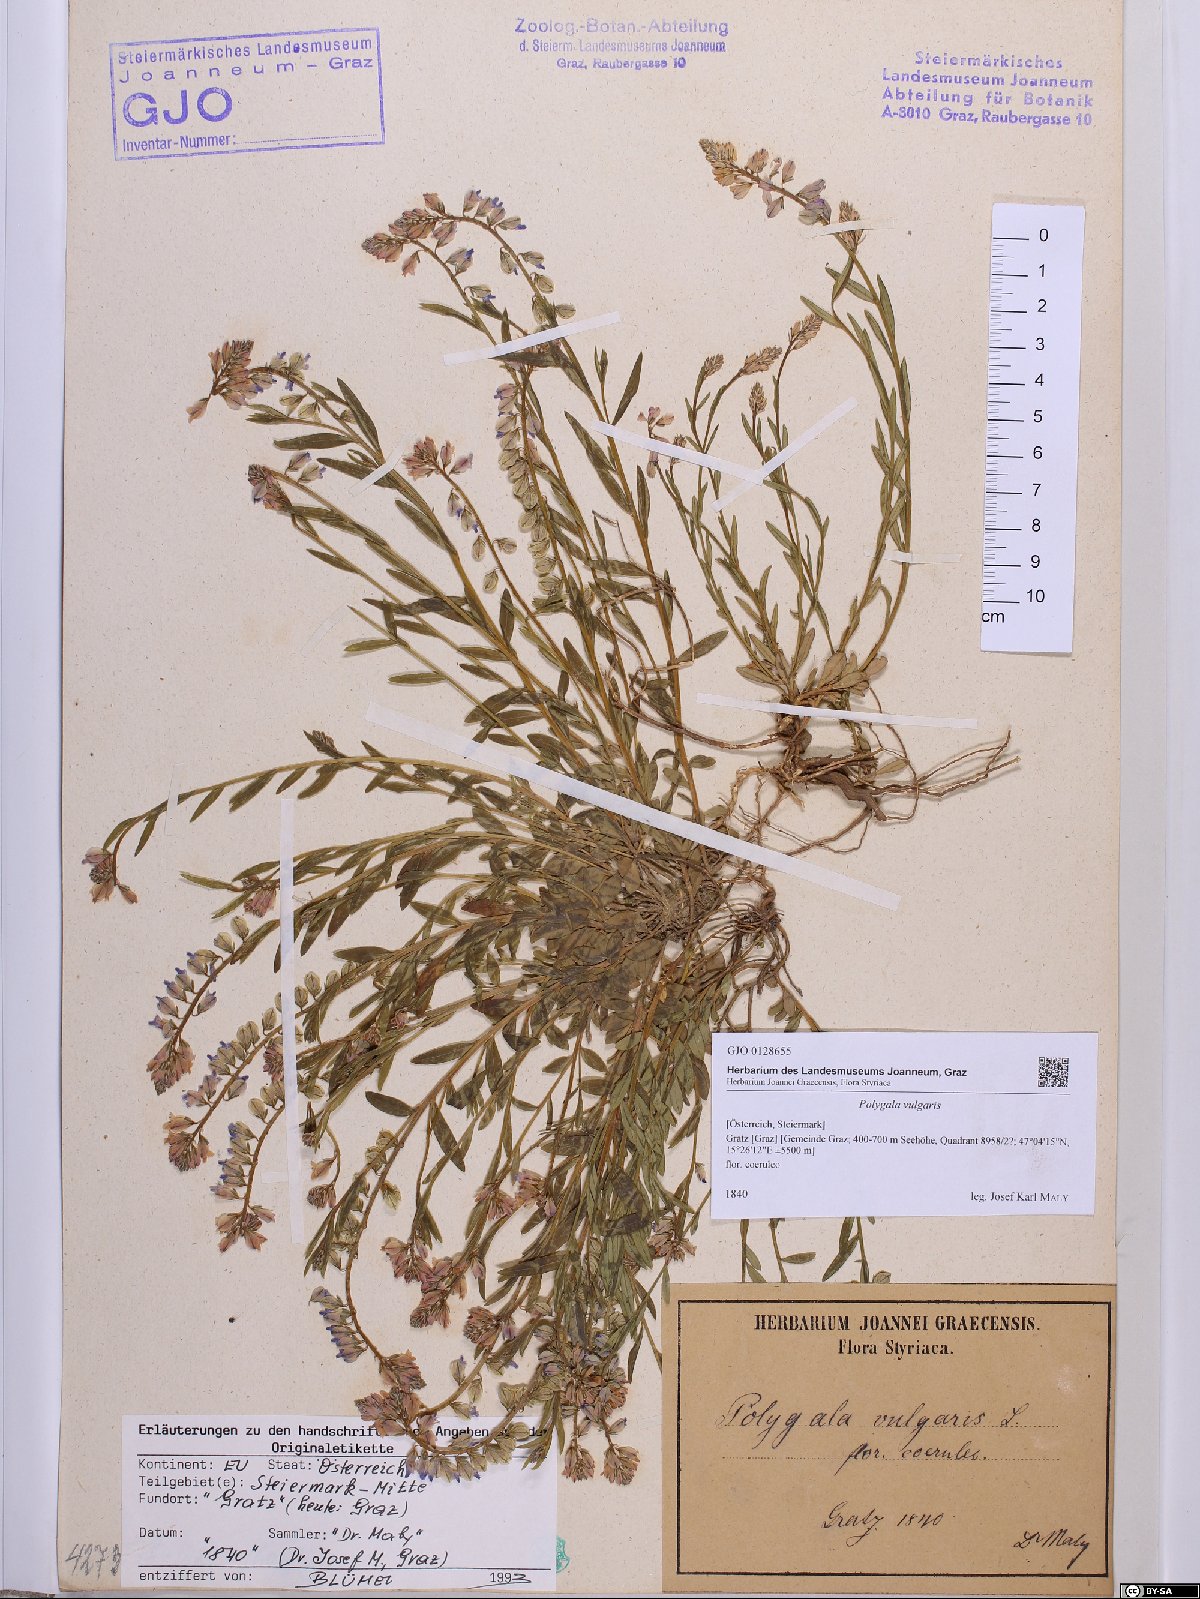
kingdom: Plantae
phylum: Tracheophyta
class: Magnoliopsida
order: Fabales
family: Polygalaceae
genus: Polygala
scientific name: Polygala vulgaris
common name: Common milkwort
